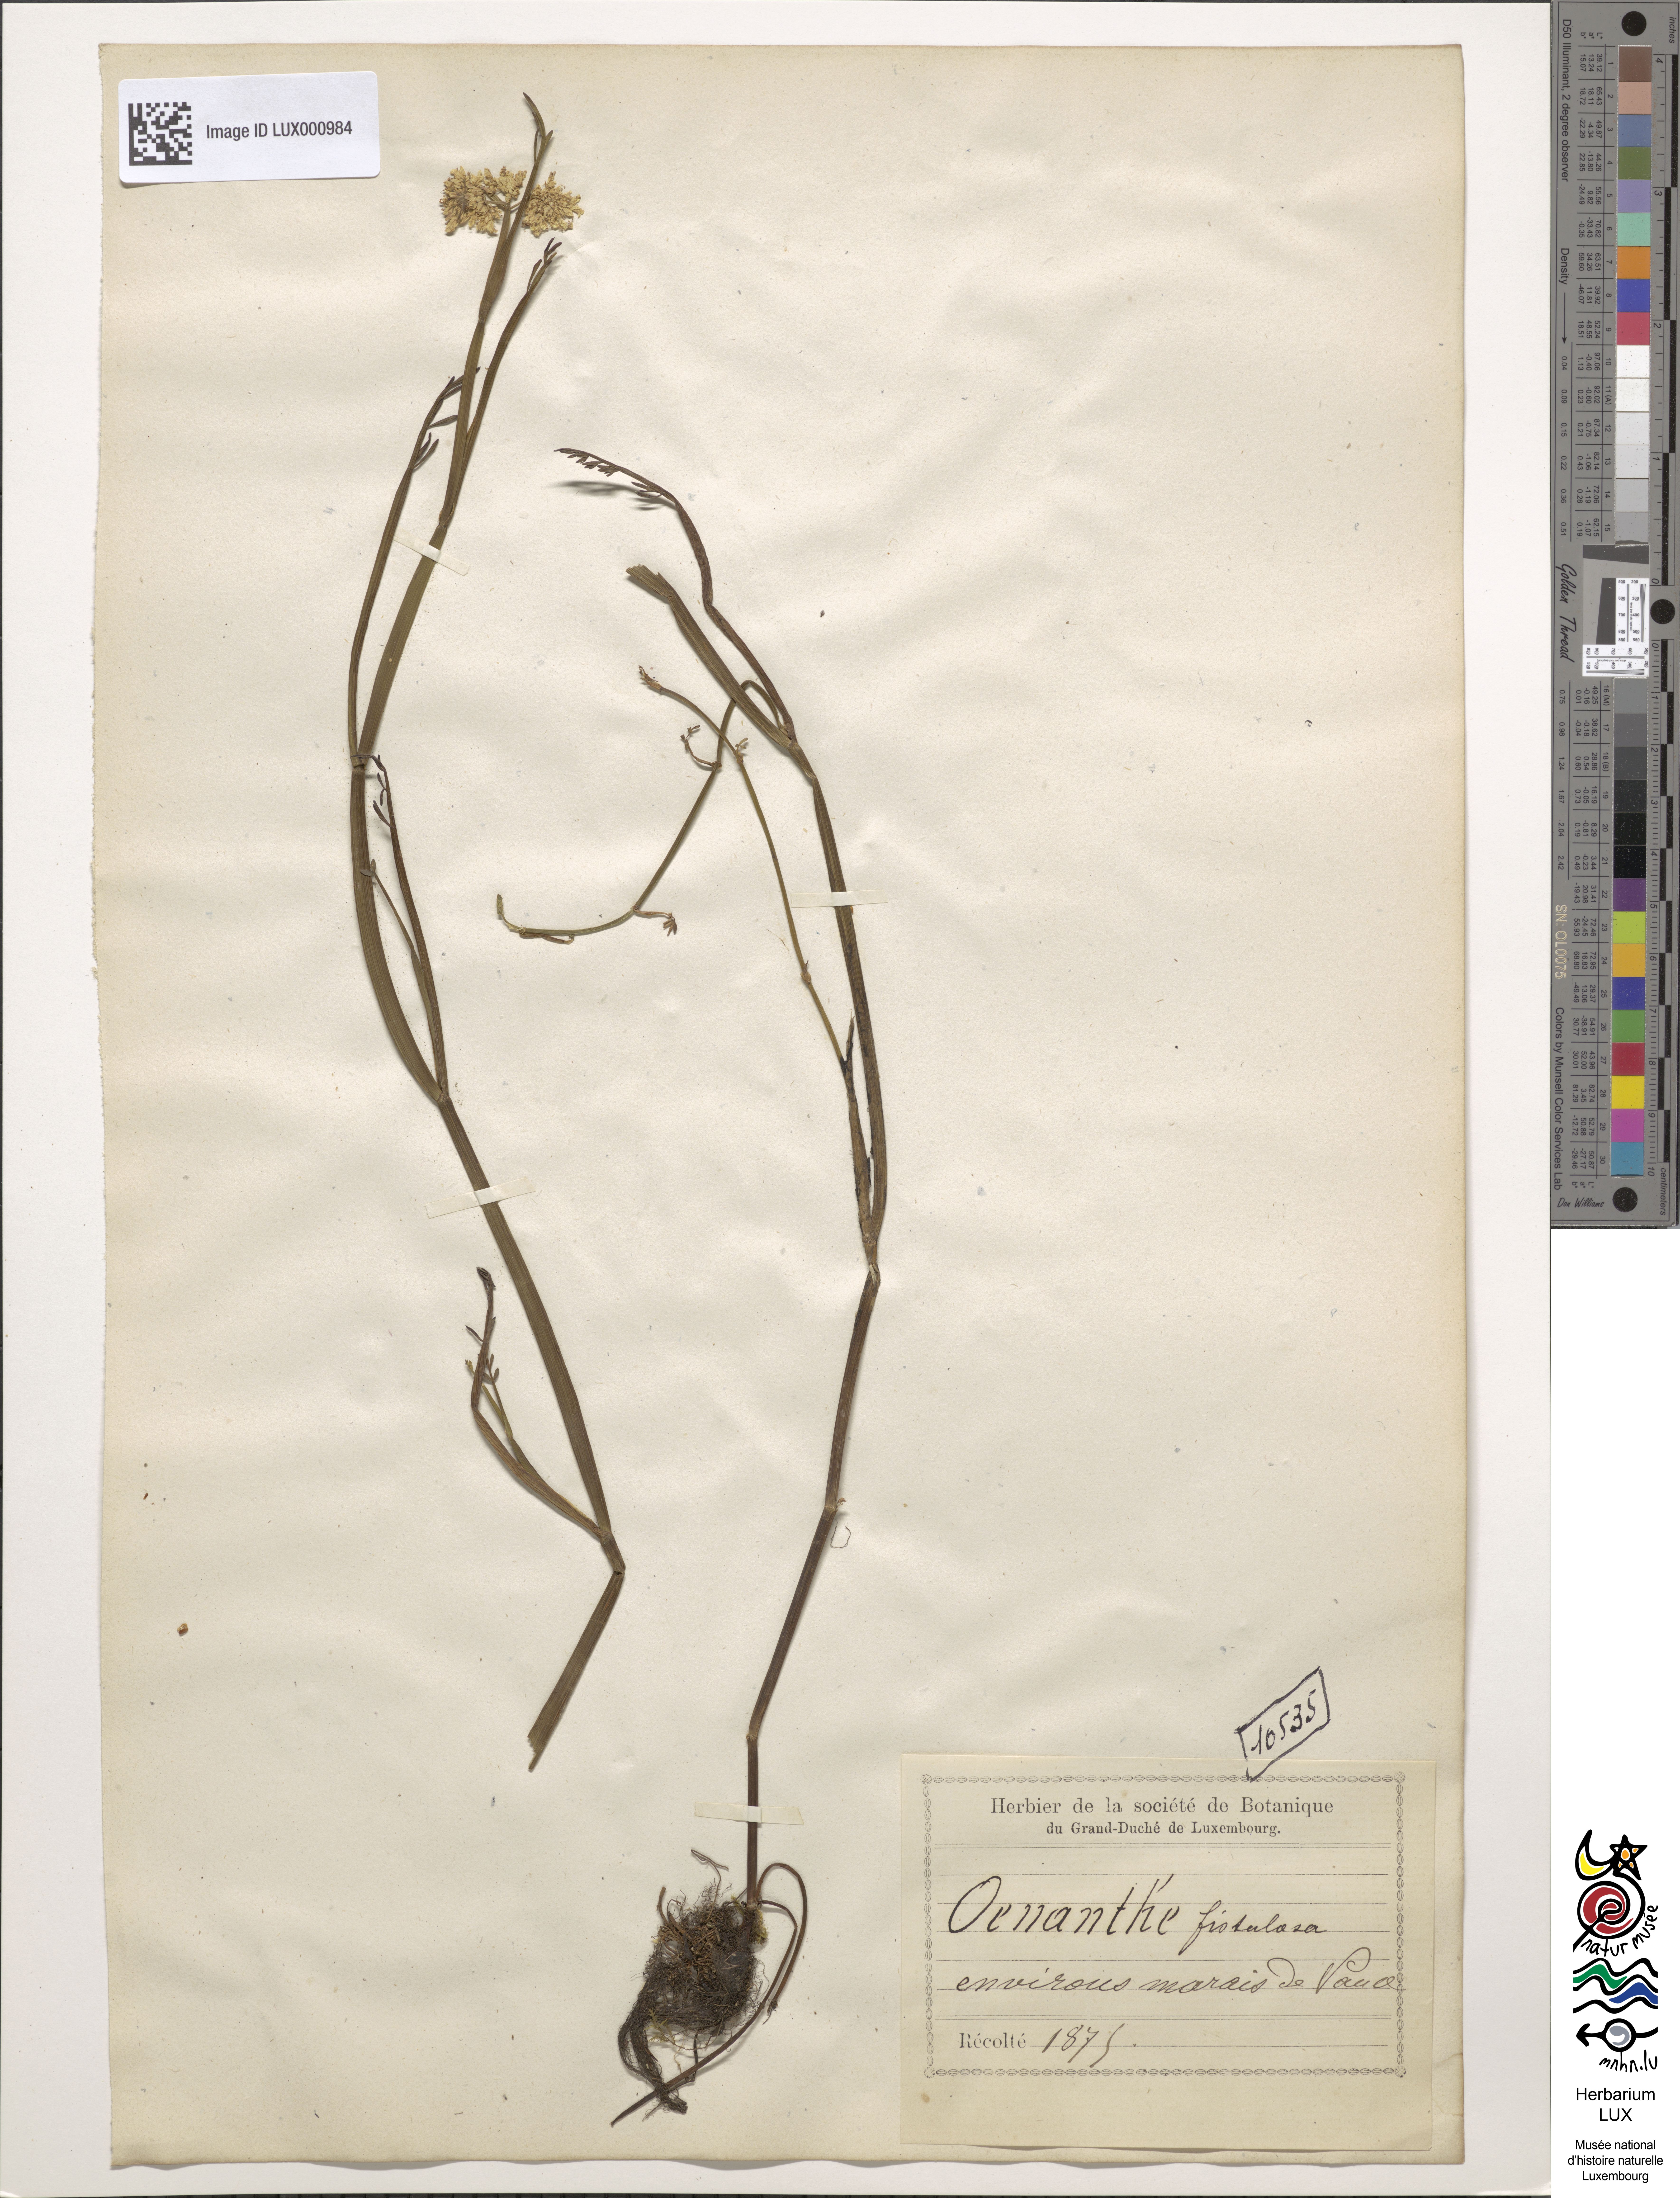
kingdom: Plantae
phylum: Tracheophyta
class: Magnoliopsida
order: Apiales
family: Apiaceae
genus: Oenanthe
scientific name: Oenanthe fistulosa
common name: Tubular water-dropwort
